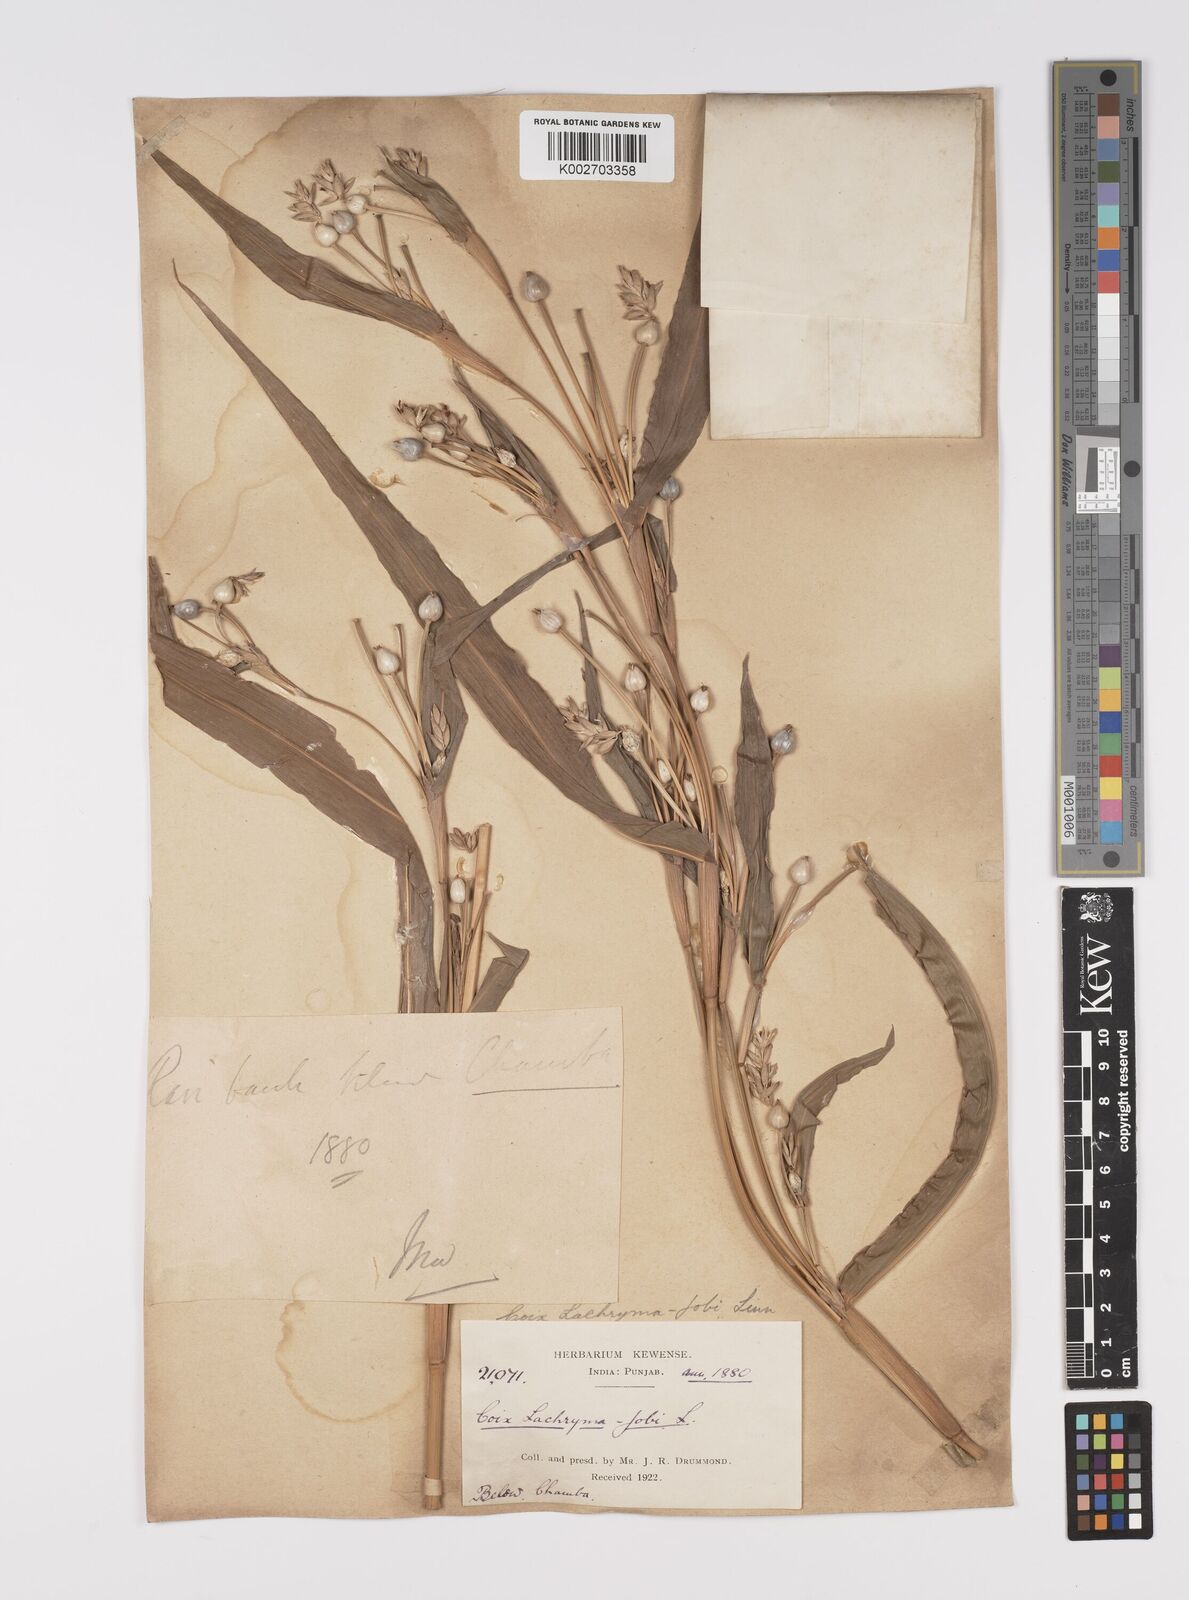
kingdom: Plantae
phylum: Tracheophyta
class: Liliopsida
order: Poales
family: Poaceae
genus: Coix
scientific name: Coix lacryma-jobi
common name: Job's tears
